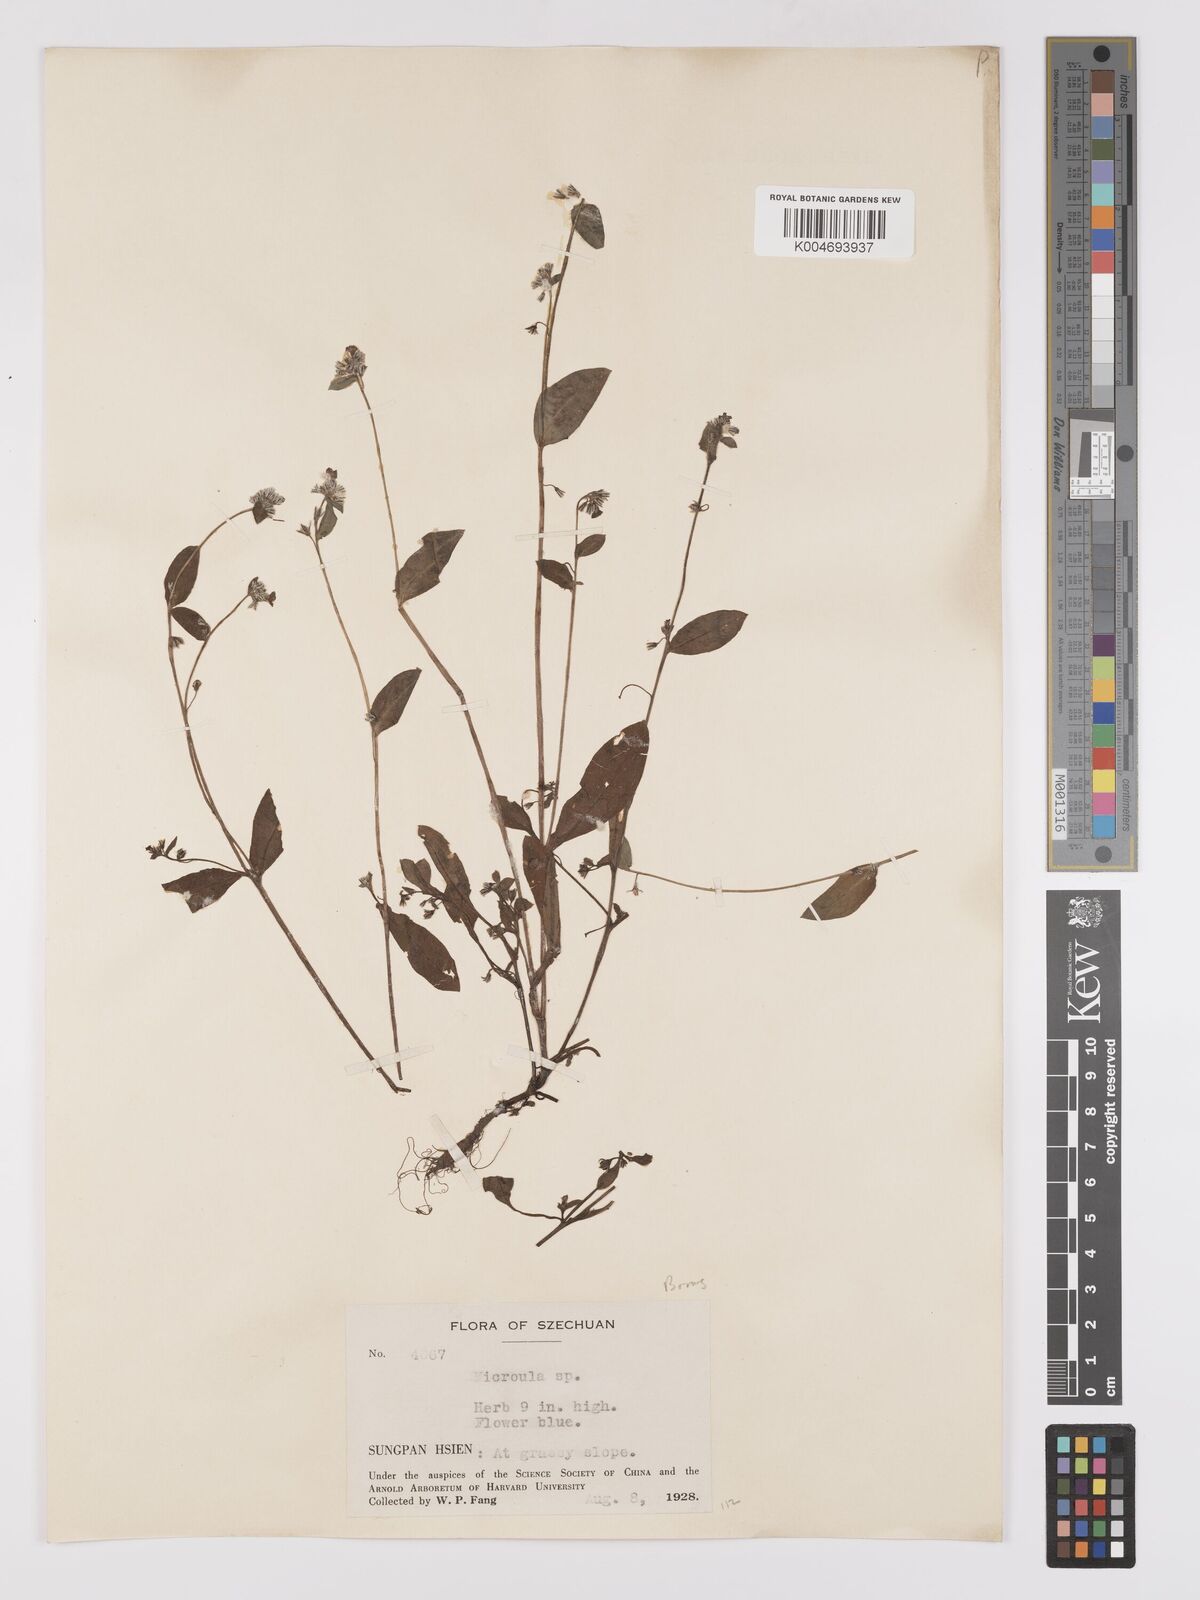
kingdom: Plantae
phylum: Tracheophyta
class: Magnoliopsida
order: Boraginales
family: Boraginaceae
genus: Microula
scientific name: Microula
